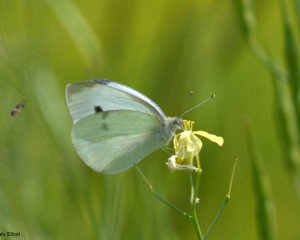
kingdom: Animalia
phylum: Arthropoda
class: Insecta
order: Lepidoptera
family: Pieridae
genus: Pieris
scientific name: Pieris rapae
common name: Cabbage White
